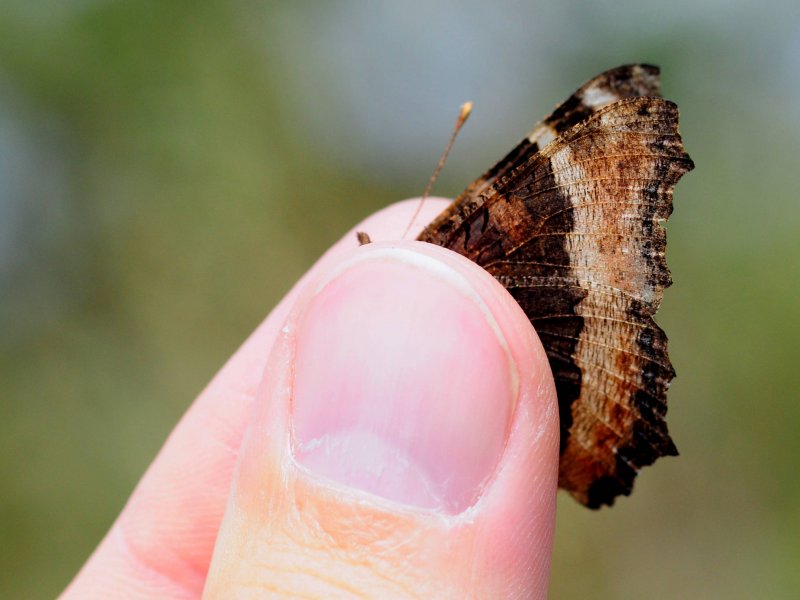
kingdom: Animalia
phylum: Arthropoda
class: Insecta
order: Lepidoptera
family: Nymphalidae
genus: Aglais
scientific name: Aglais milberti
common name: Milbert's Tortoiseshell
